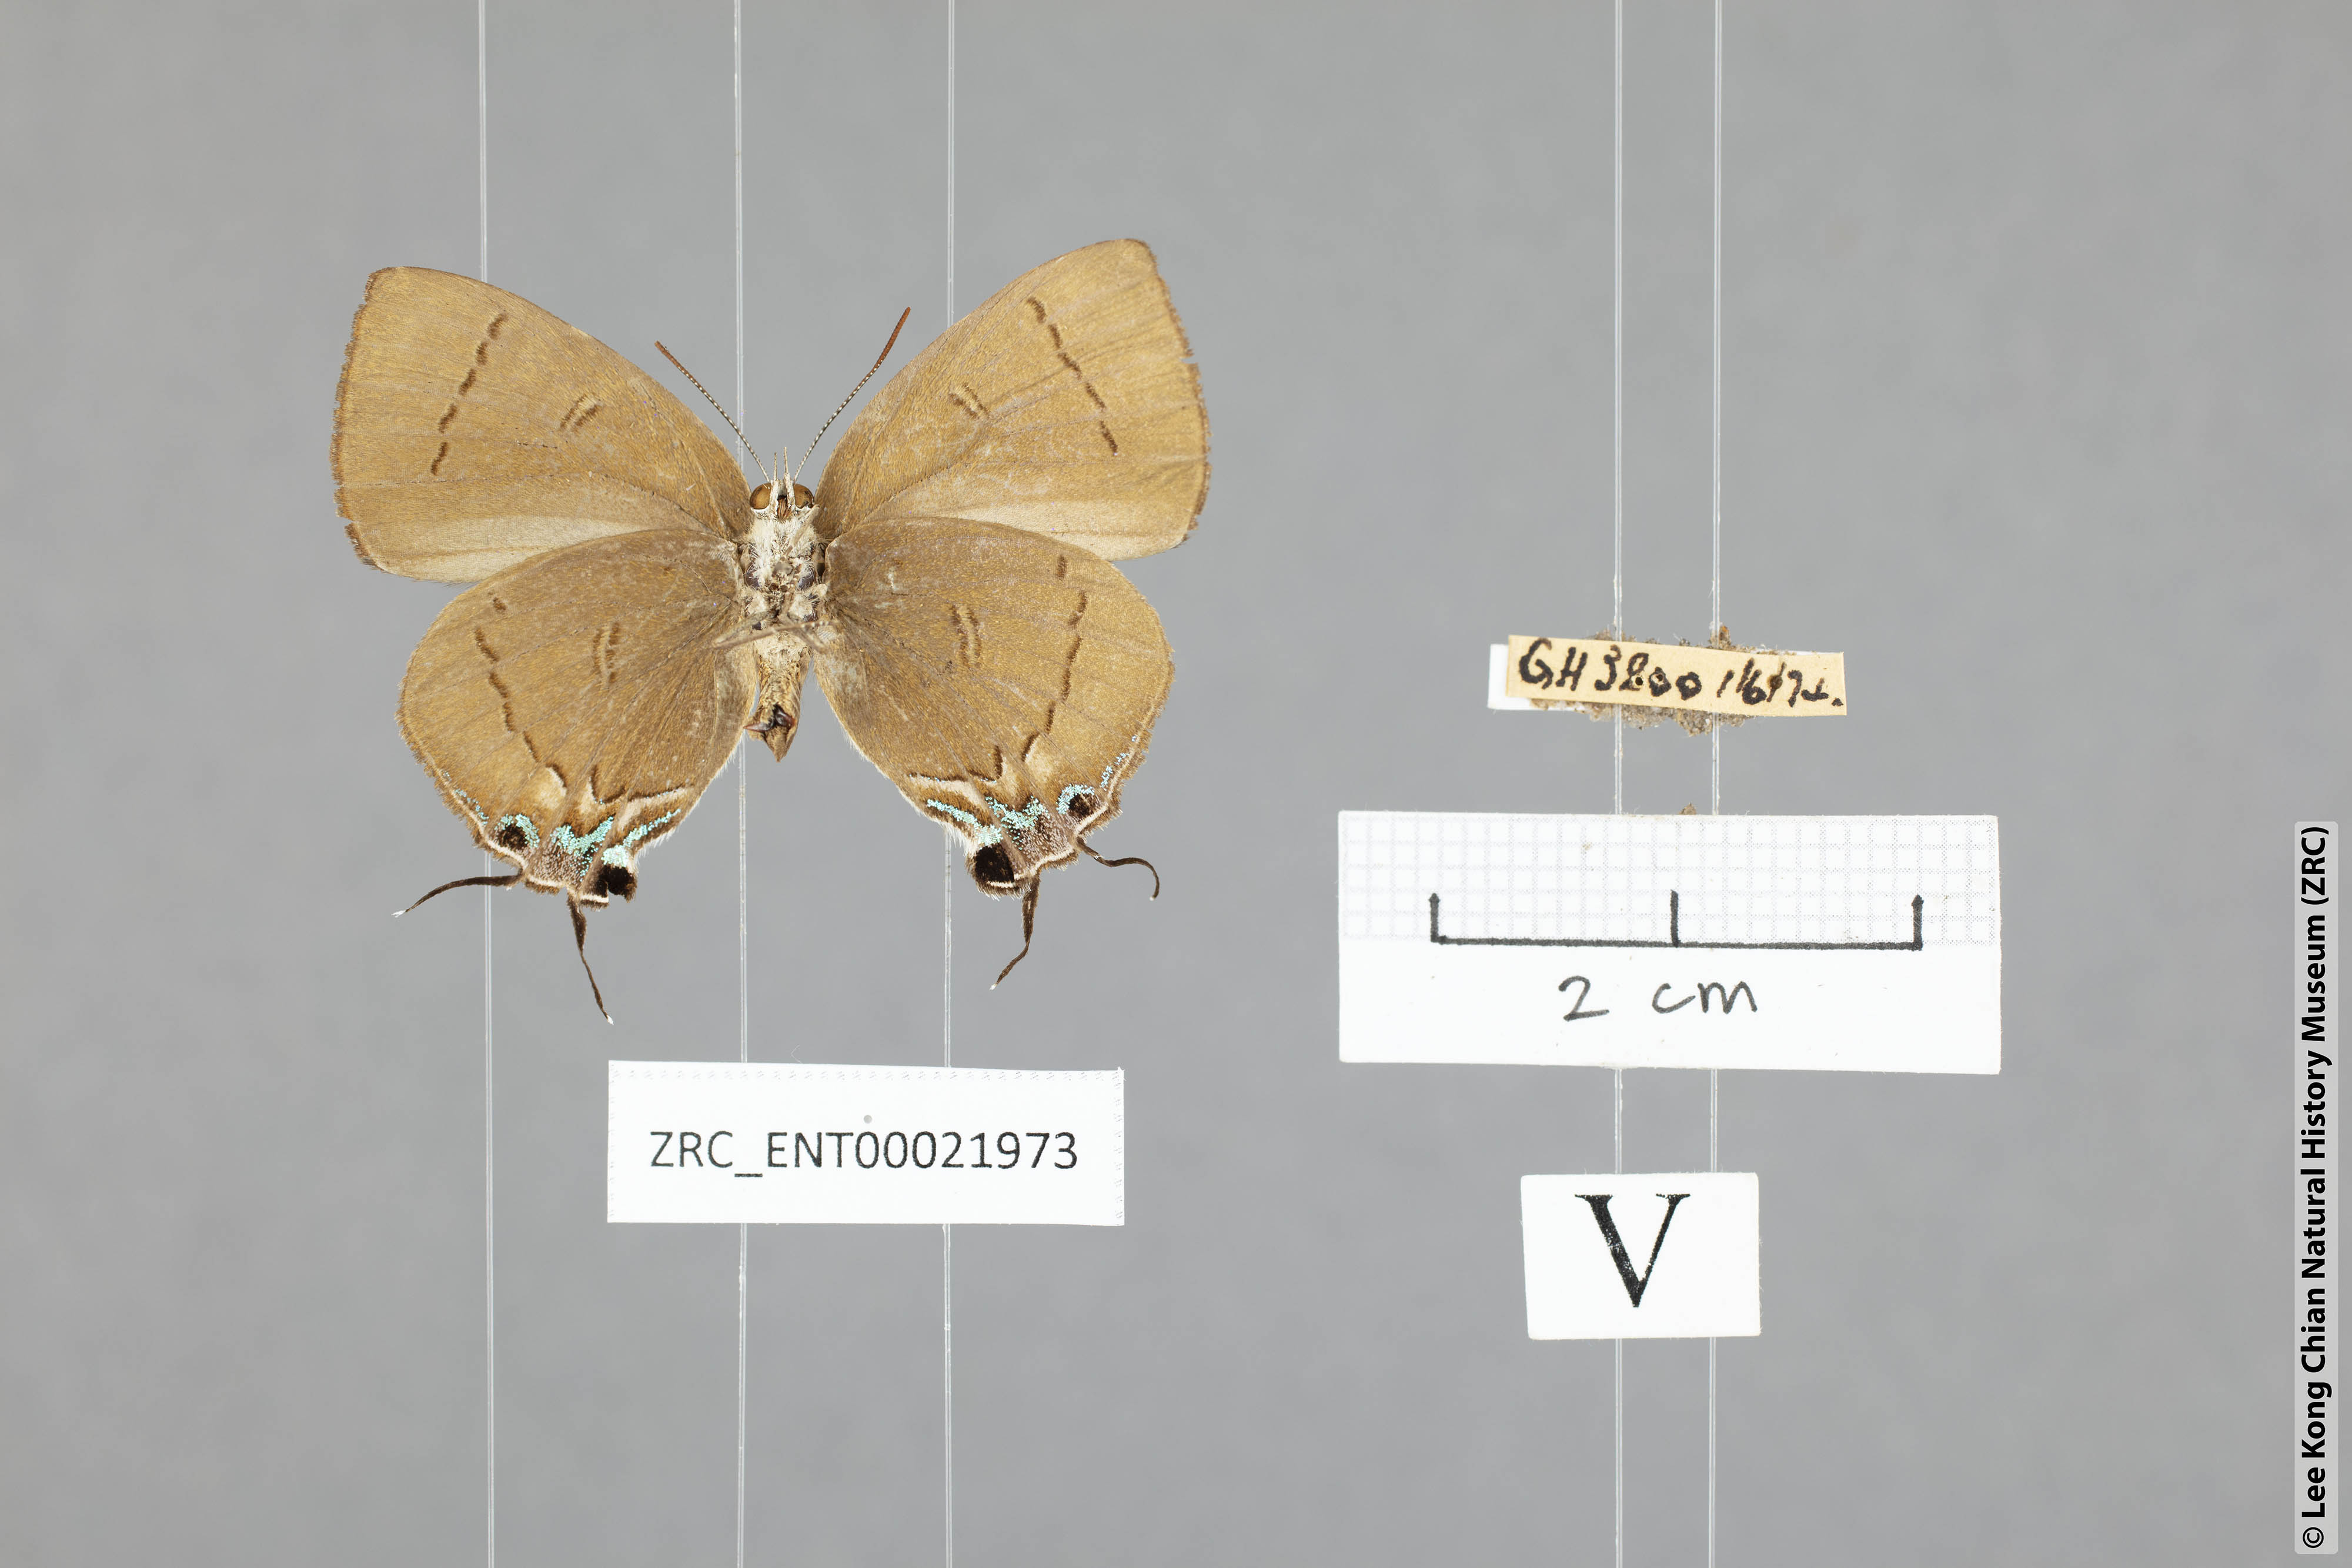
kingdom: Animalia
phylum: Arthropoda
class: Insecta
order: Lepidoptera
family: Lycaenidae
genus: Remelana
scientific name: Remelana jangala
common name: Chocolate royal
